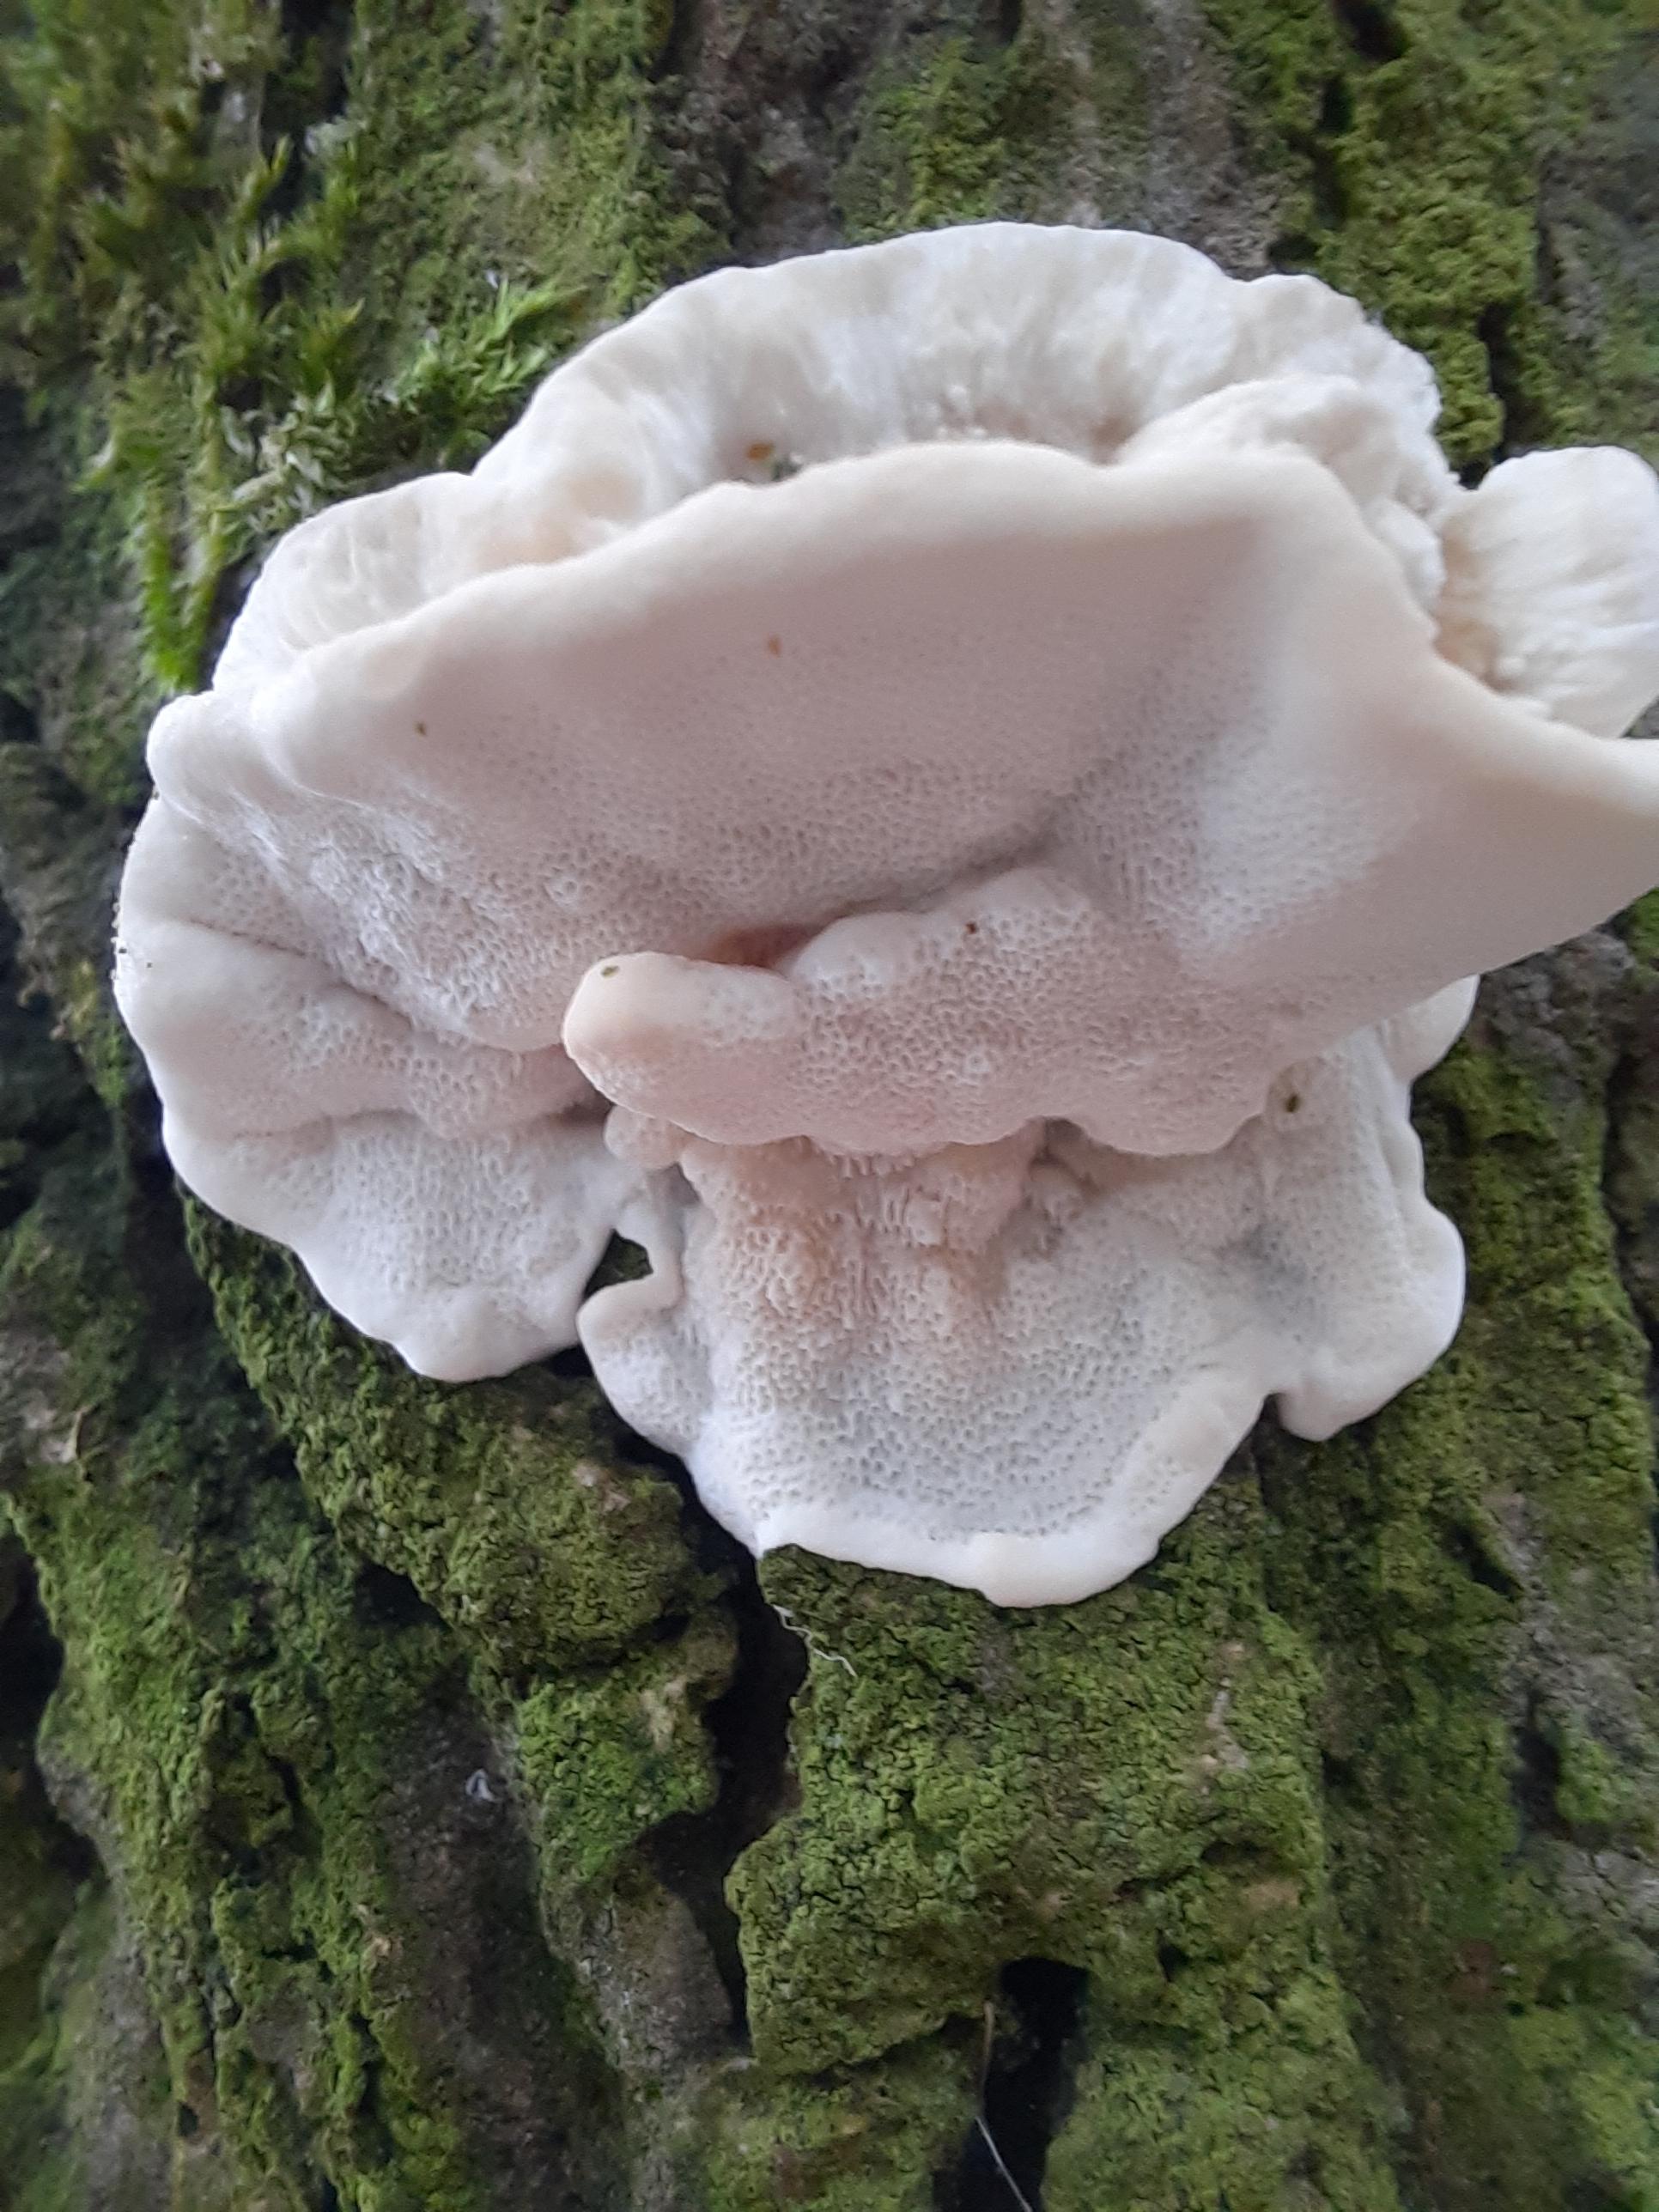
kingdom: Fungi
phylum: Basidiomycota
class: Agaricomycetes
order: Polyporales
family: Polyporaceae
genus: Trametes
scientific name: Trametes ochracea
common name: bæltet læderporesvamp
